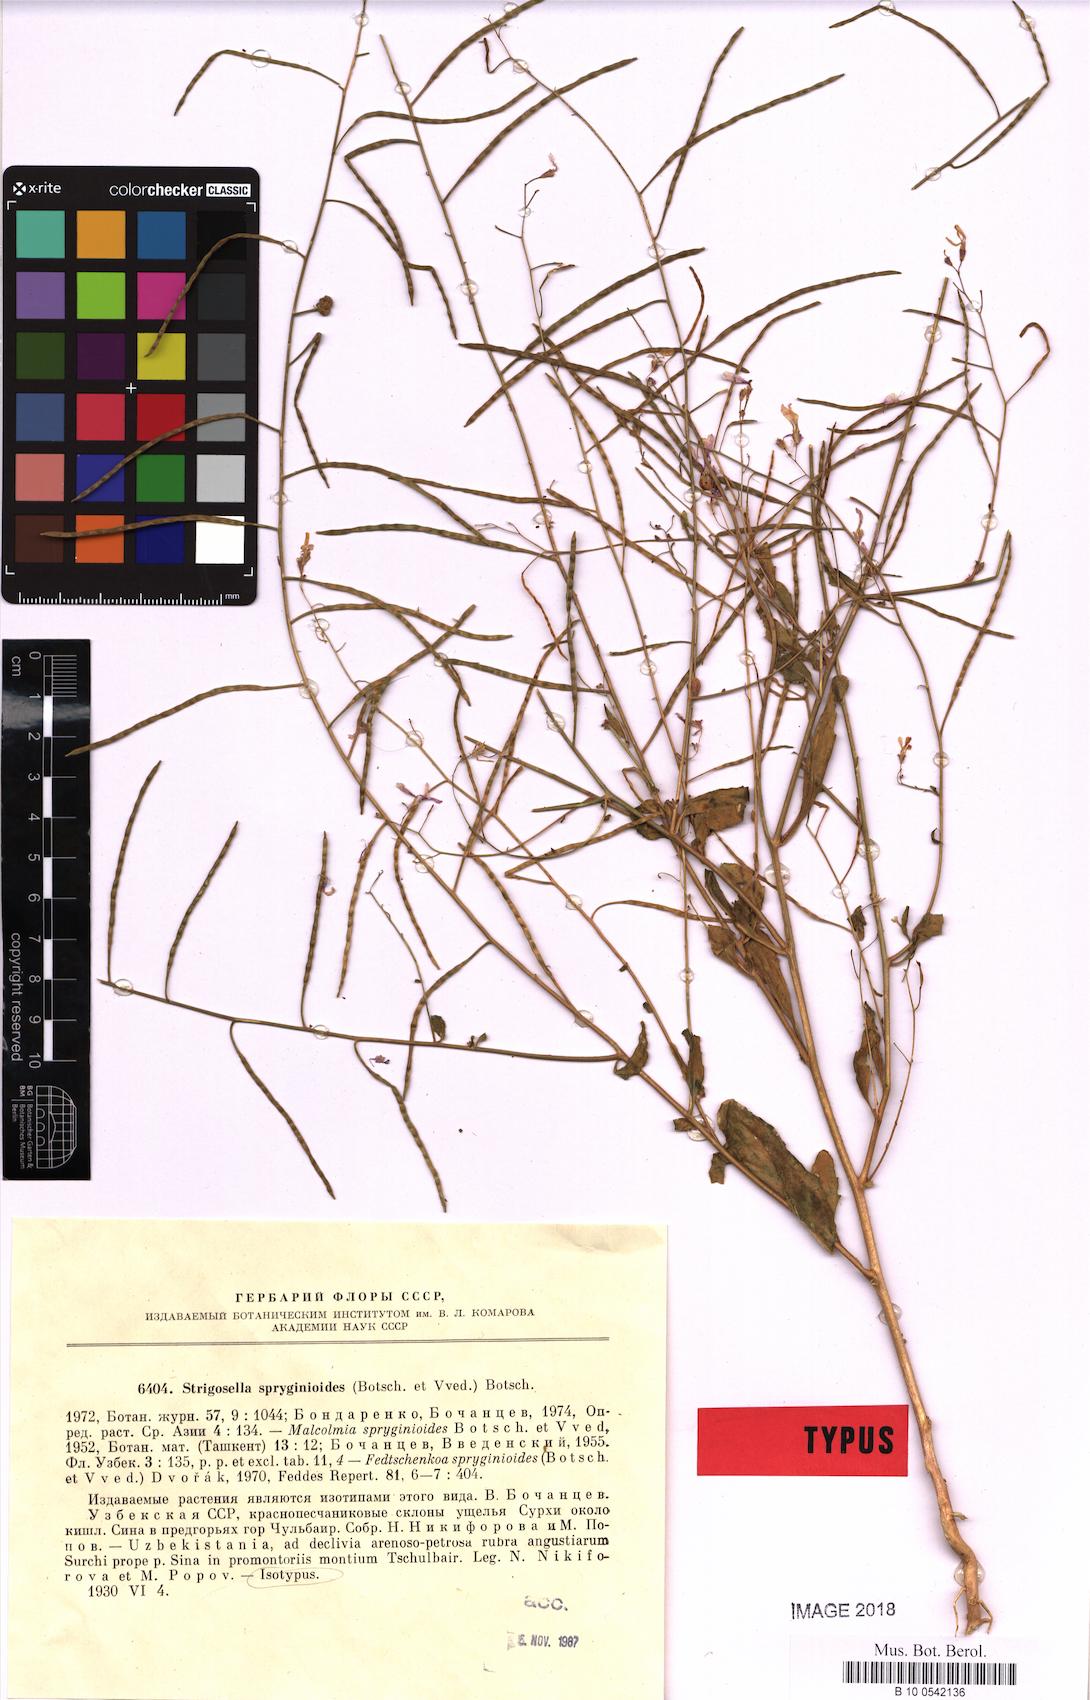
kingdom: Plantae
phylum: Tracheophyta
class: Magnoliopsida
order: Brassicales
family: Brassicaceae
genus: Strigosella
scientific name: Strigosella spryginioides
